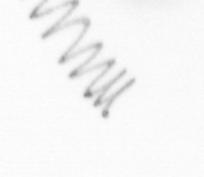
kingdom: Chromista
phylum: Ochrophyta
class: Bacillariophyceae
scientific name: Bacillariophyceae
